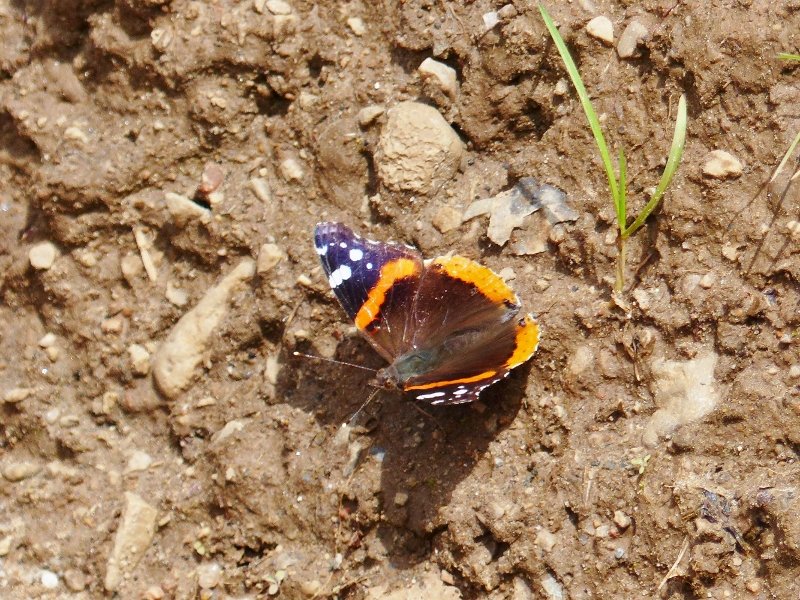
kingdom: Animalia
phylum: Arthropoda
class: Insecta
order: Lepidoptera
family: Nymphalidae
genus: Vanessa
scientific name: Vanessa atalanta
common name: Red Admiral
